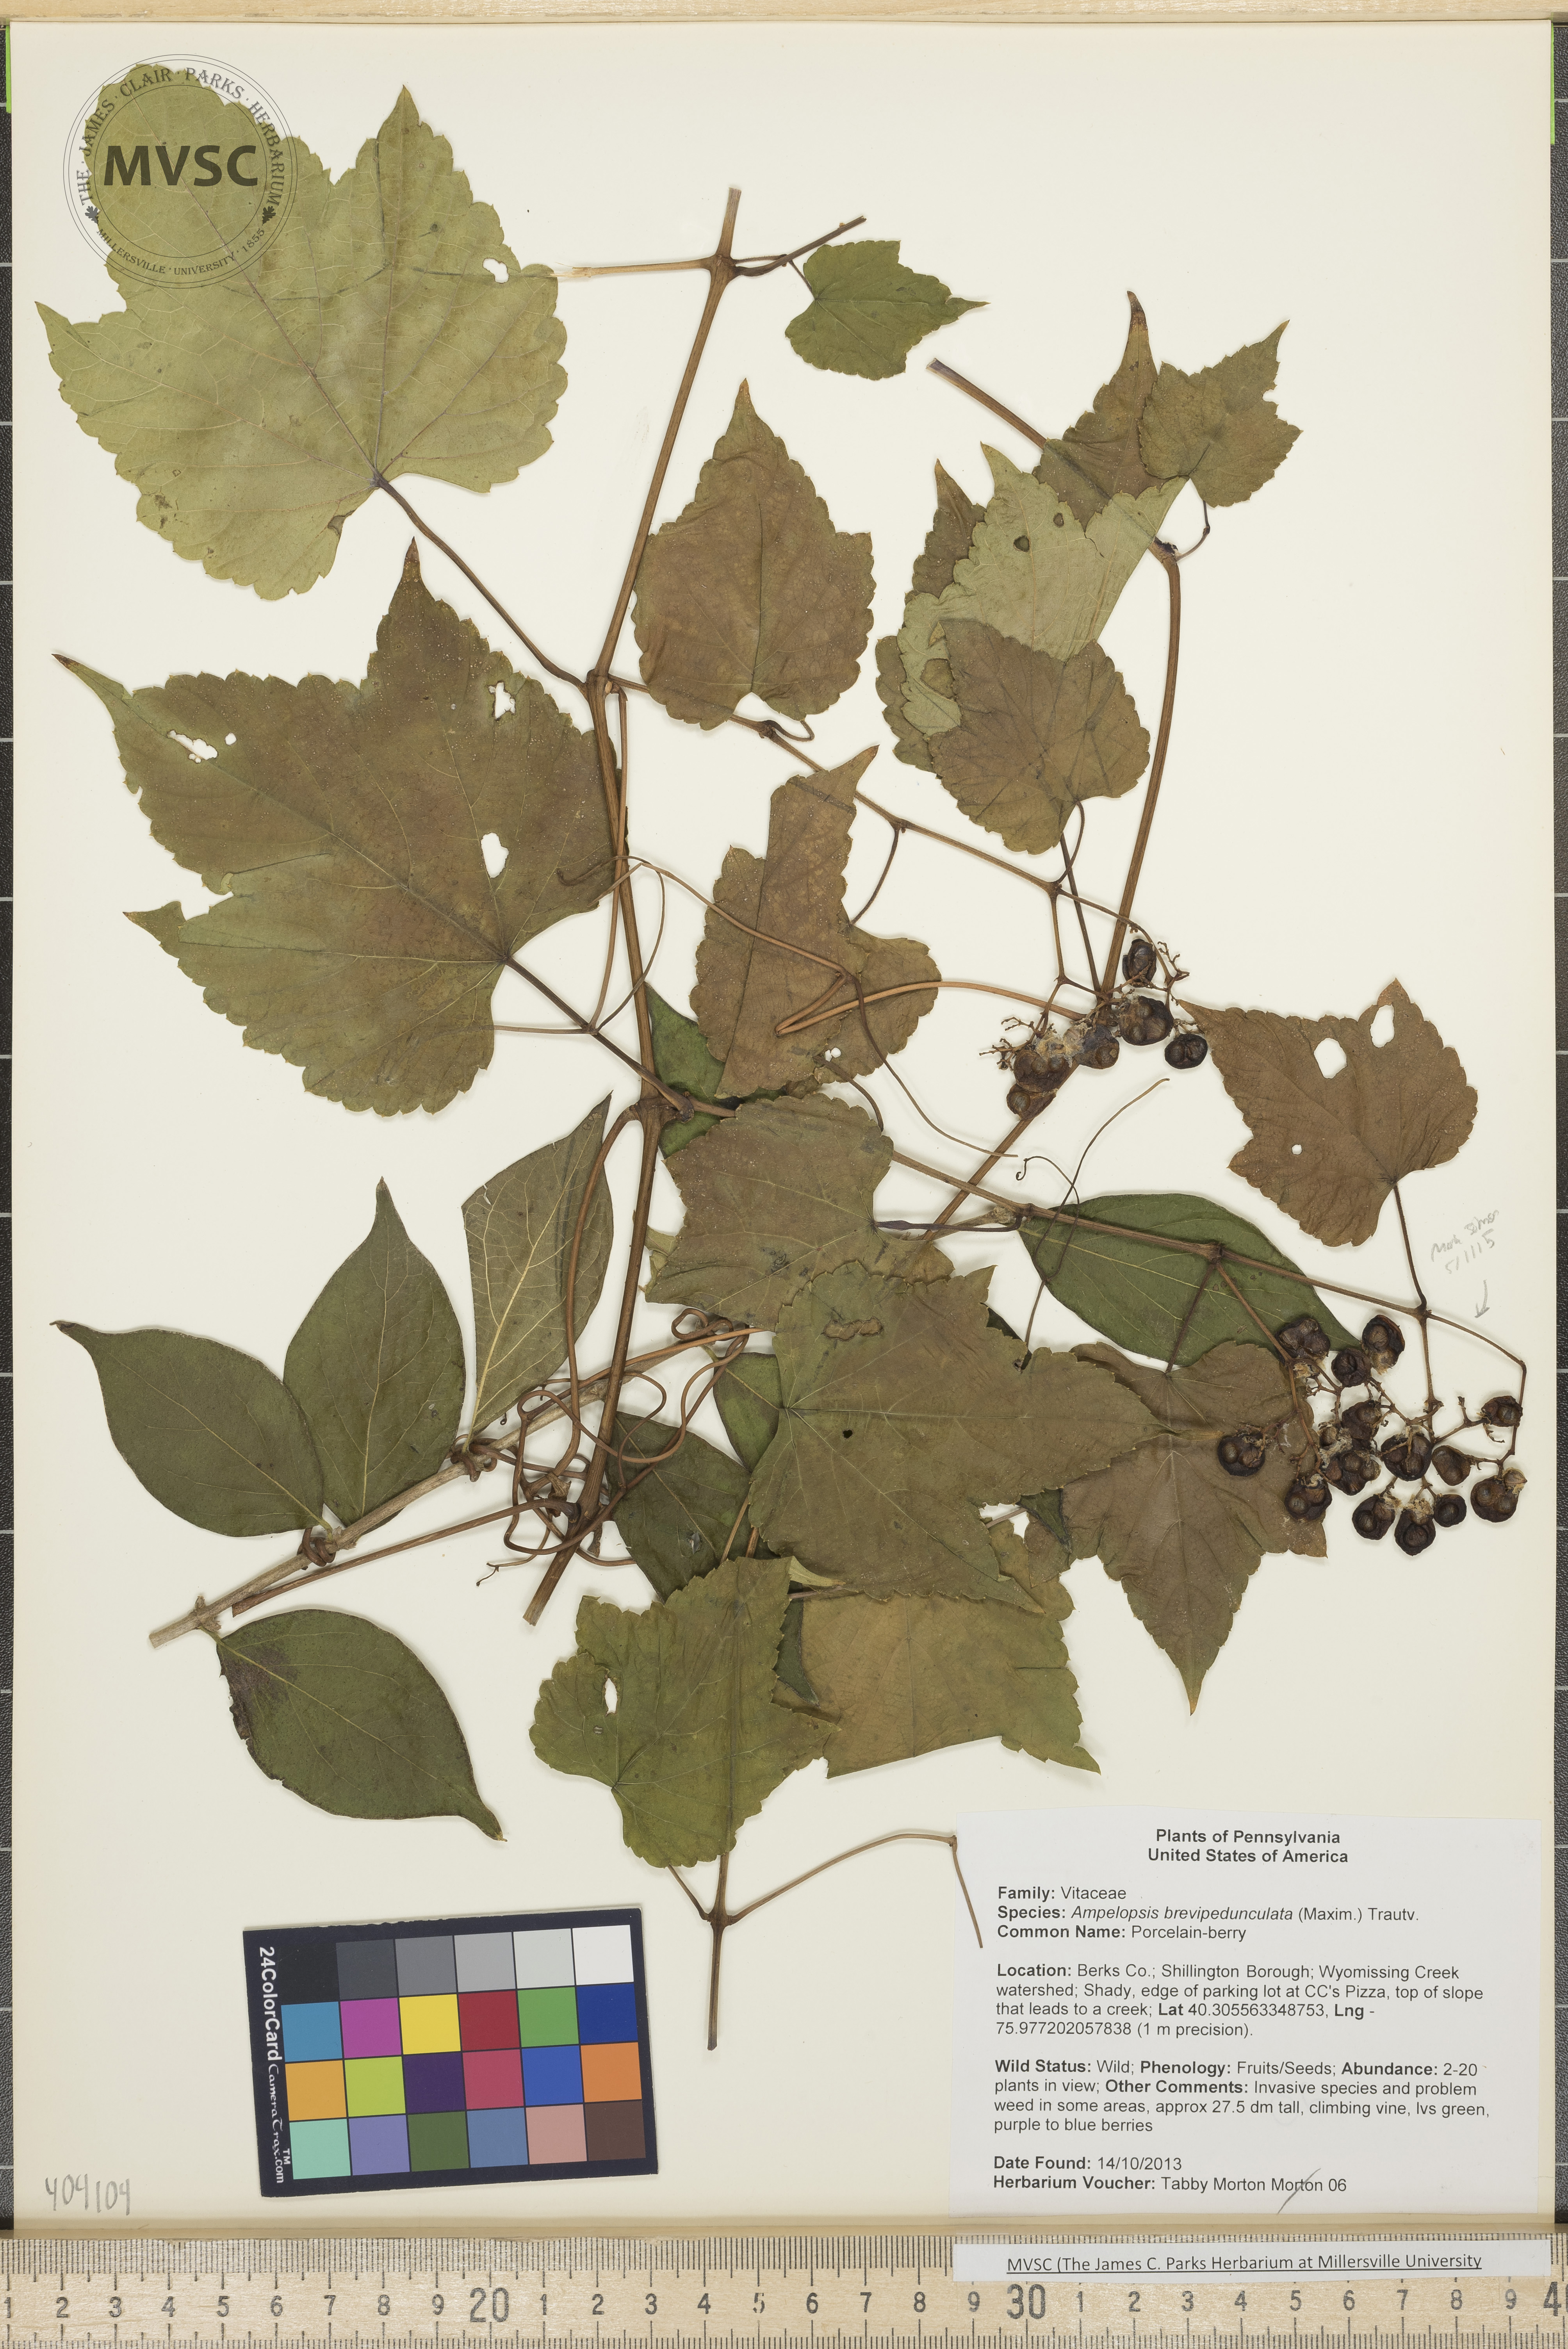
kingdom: Plantae
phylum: Tracheophyta
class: Magnoliopsida
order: Vitales
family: Vitaceae
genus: Ampelopsis
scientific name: Ampelopsis brevipedunculata
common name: Porcelain-berry
